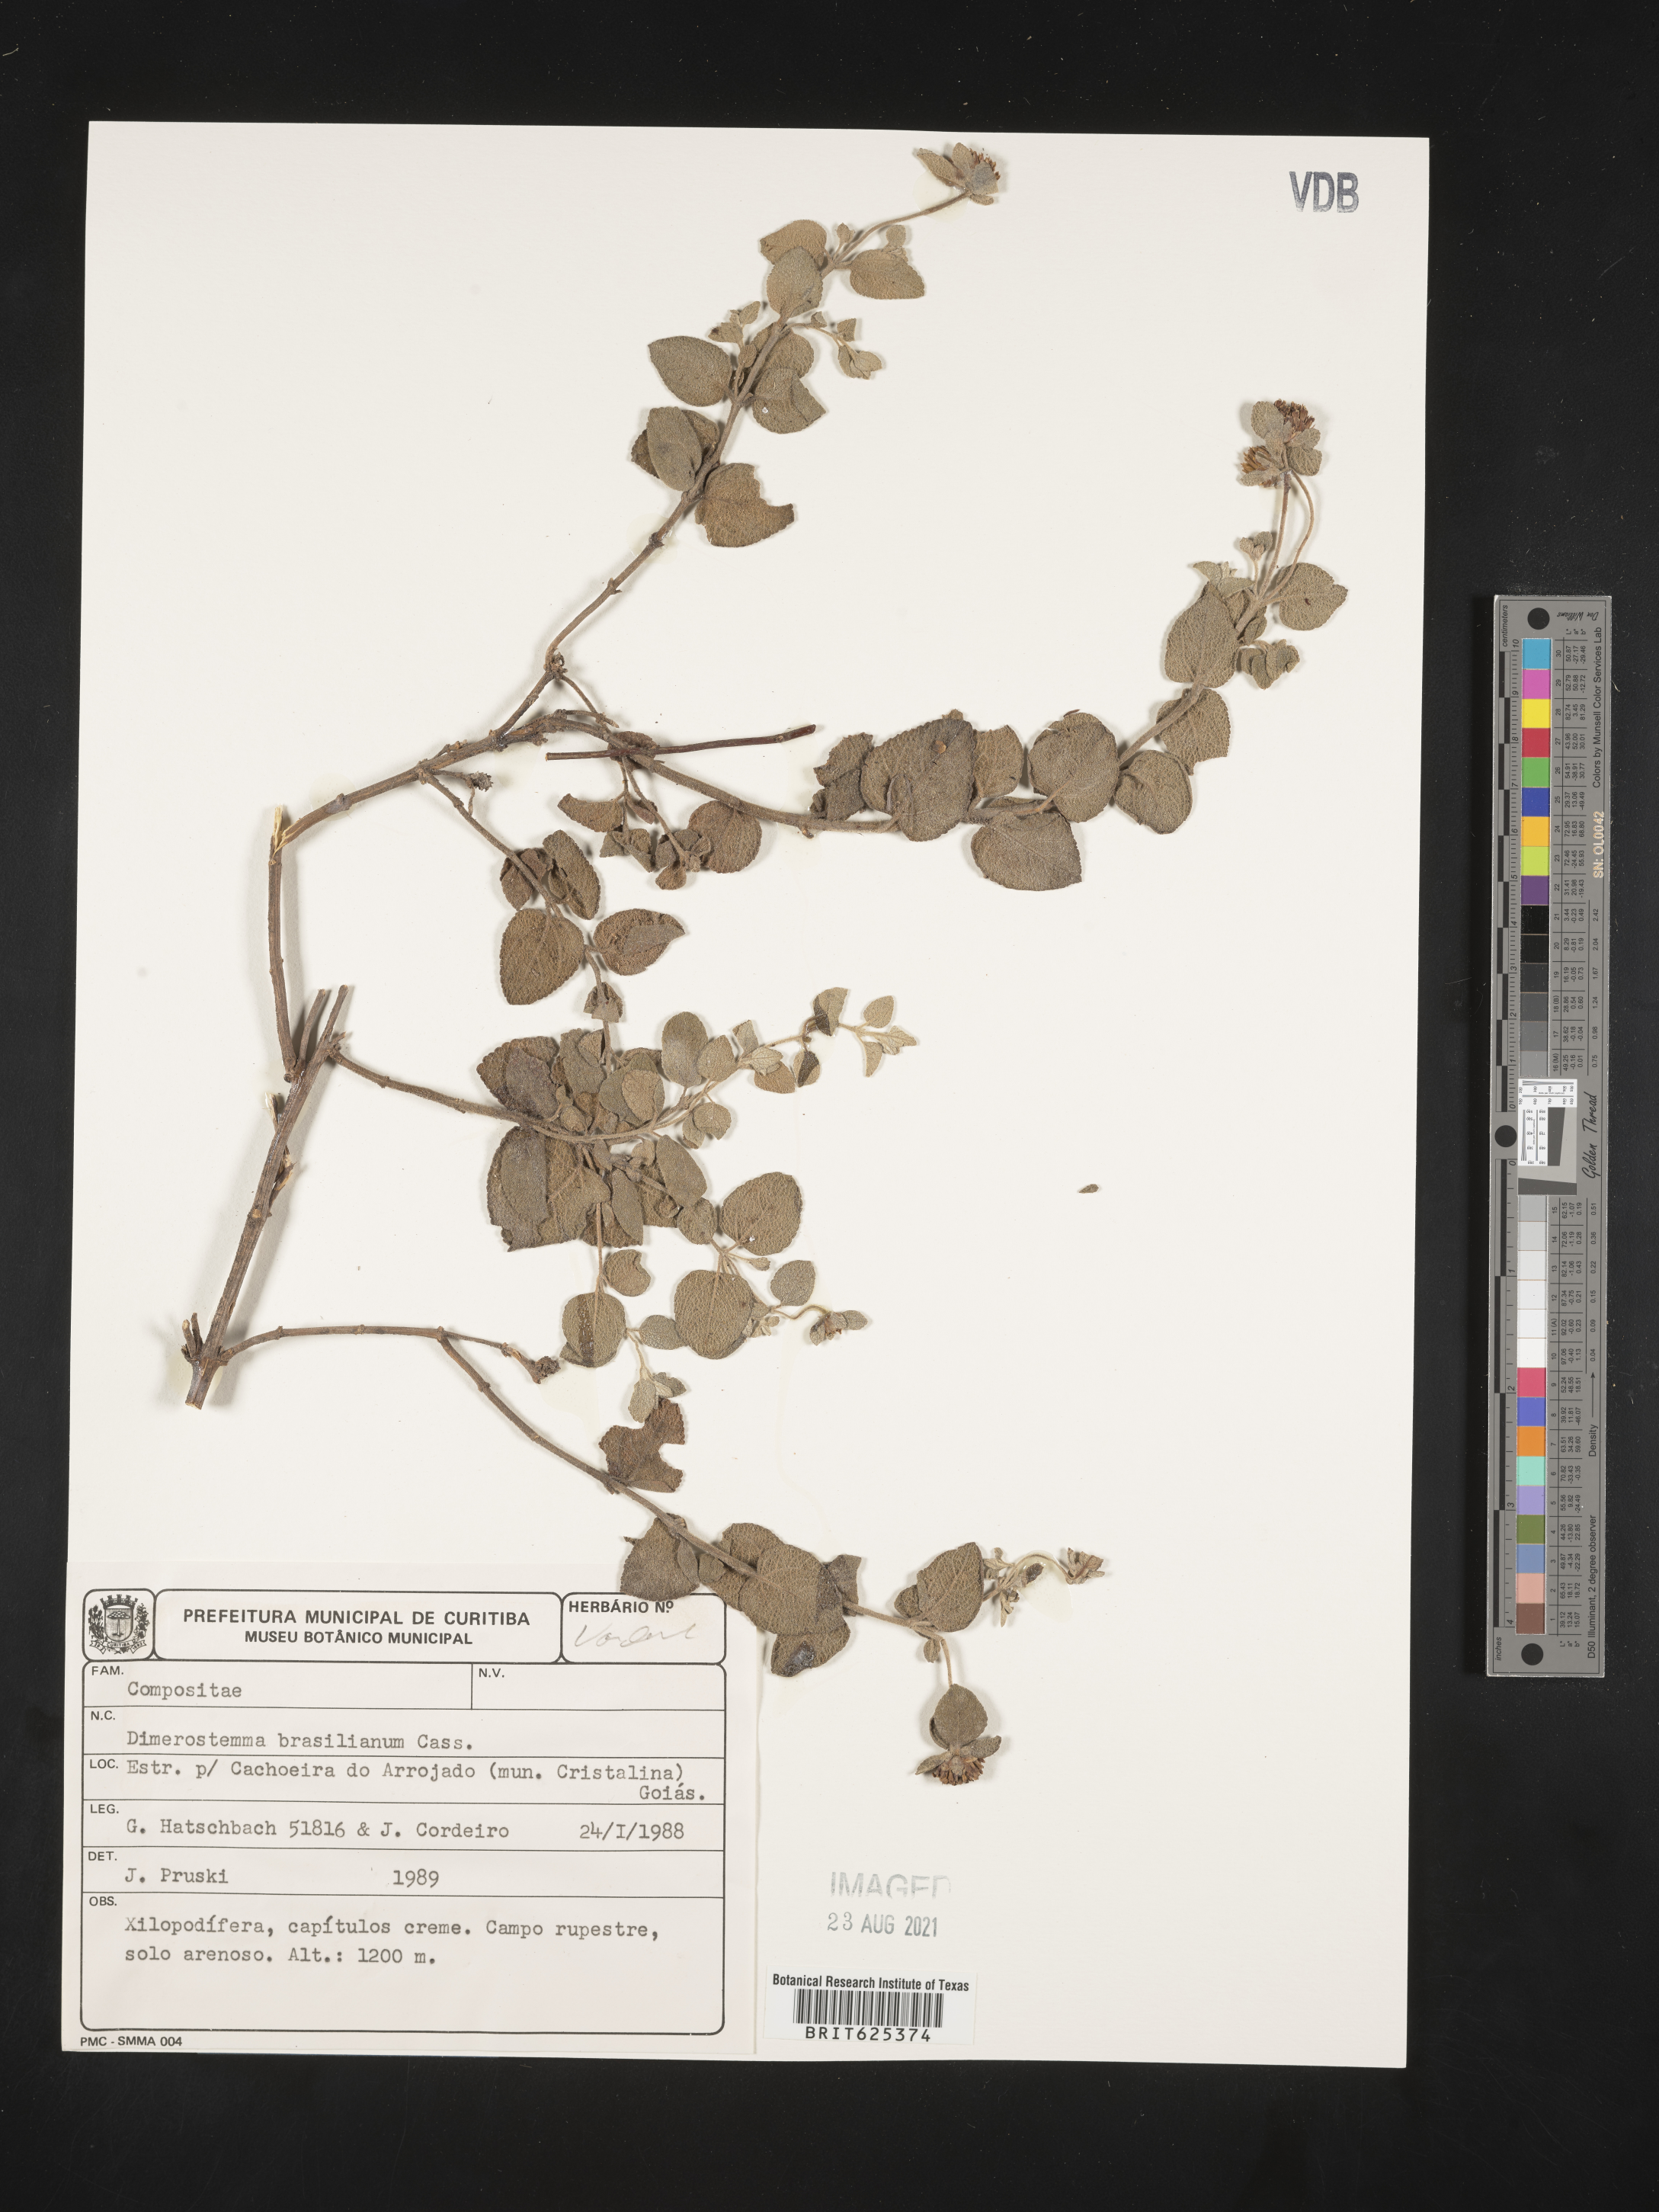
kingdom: Plantae
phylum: Tracheophyta
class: Magnoliopsida
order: Asterales
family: Asteraceae
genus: Dimerostemma
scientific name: Dimerostemma brasilianum
